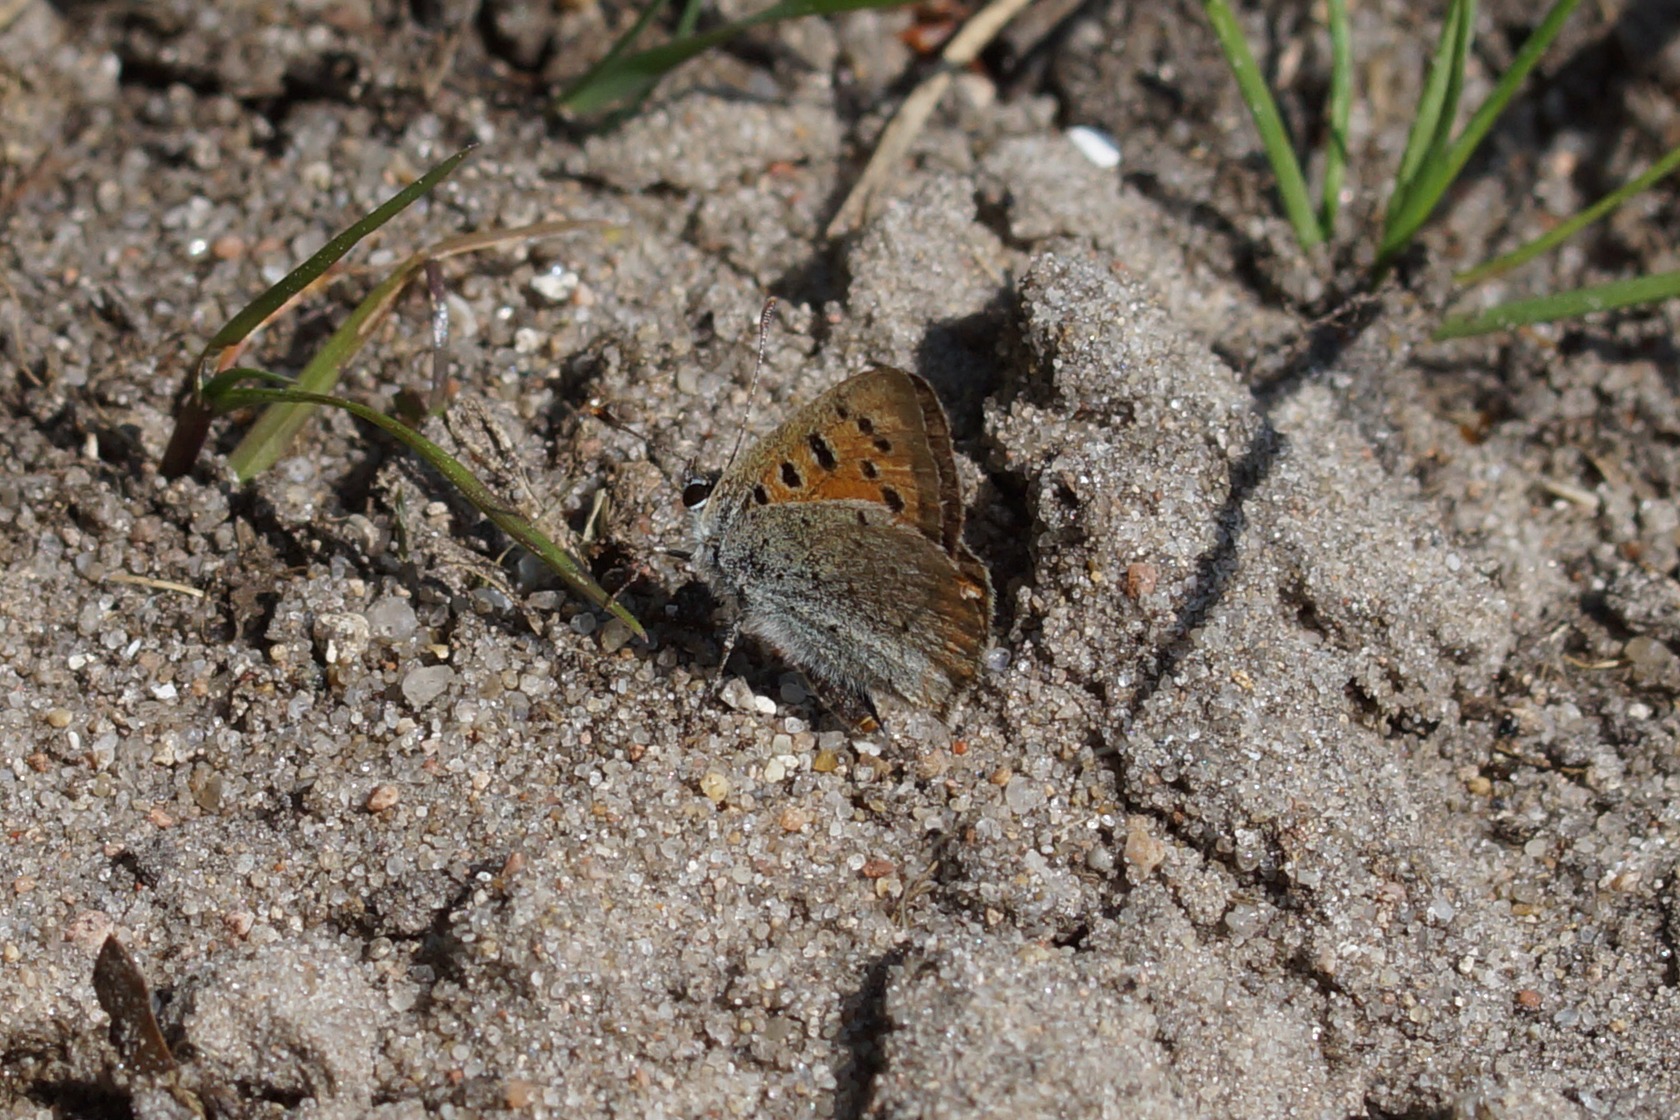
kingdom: Animalia
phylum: Arthropoda
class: Insecta
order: Lepidoptera
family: Lycaenidae
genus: Lycaena
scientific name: Lycaena phlaeas
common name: Lille ildfugl
